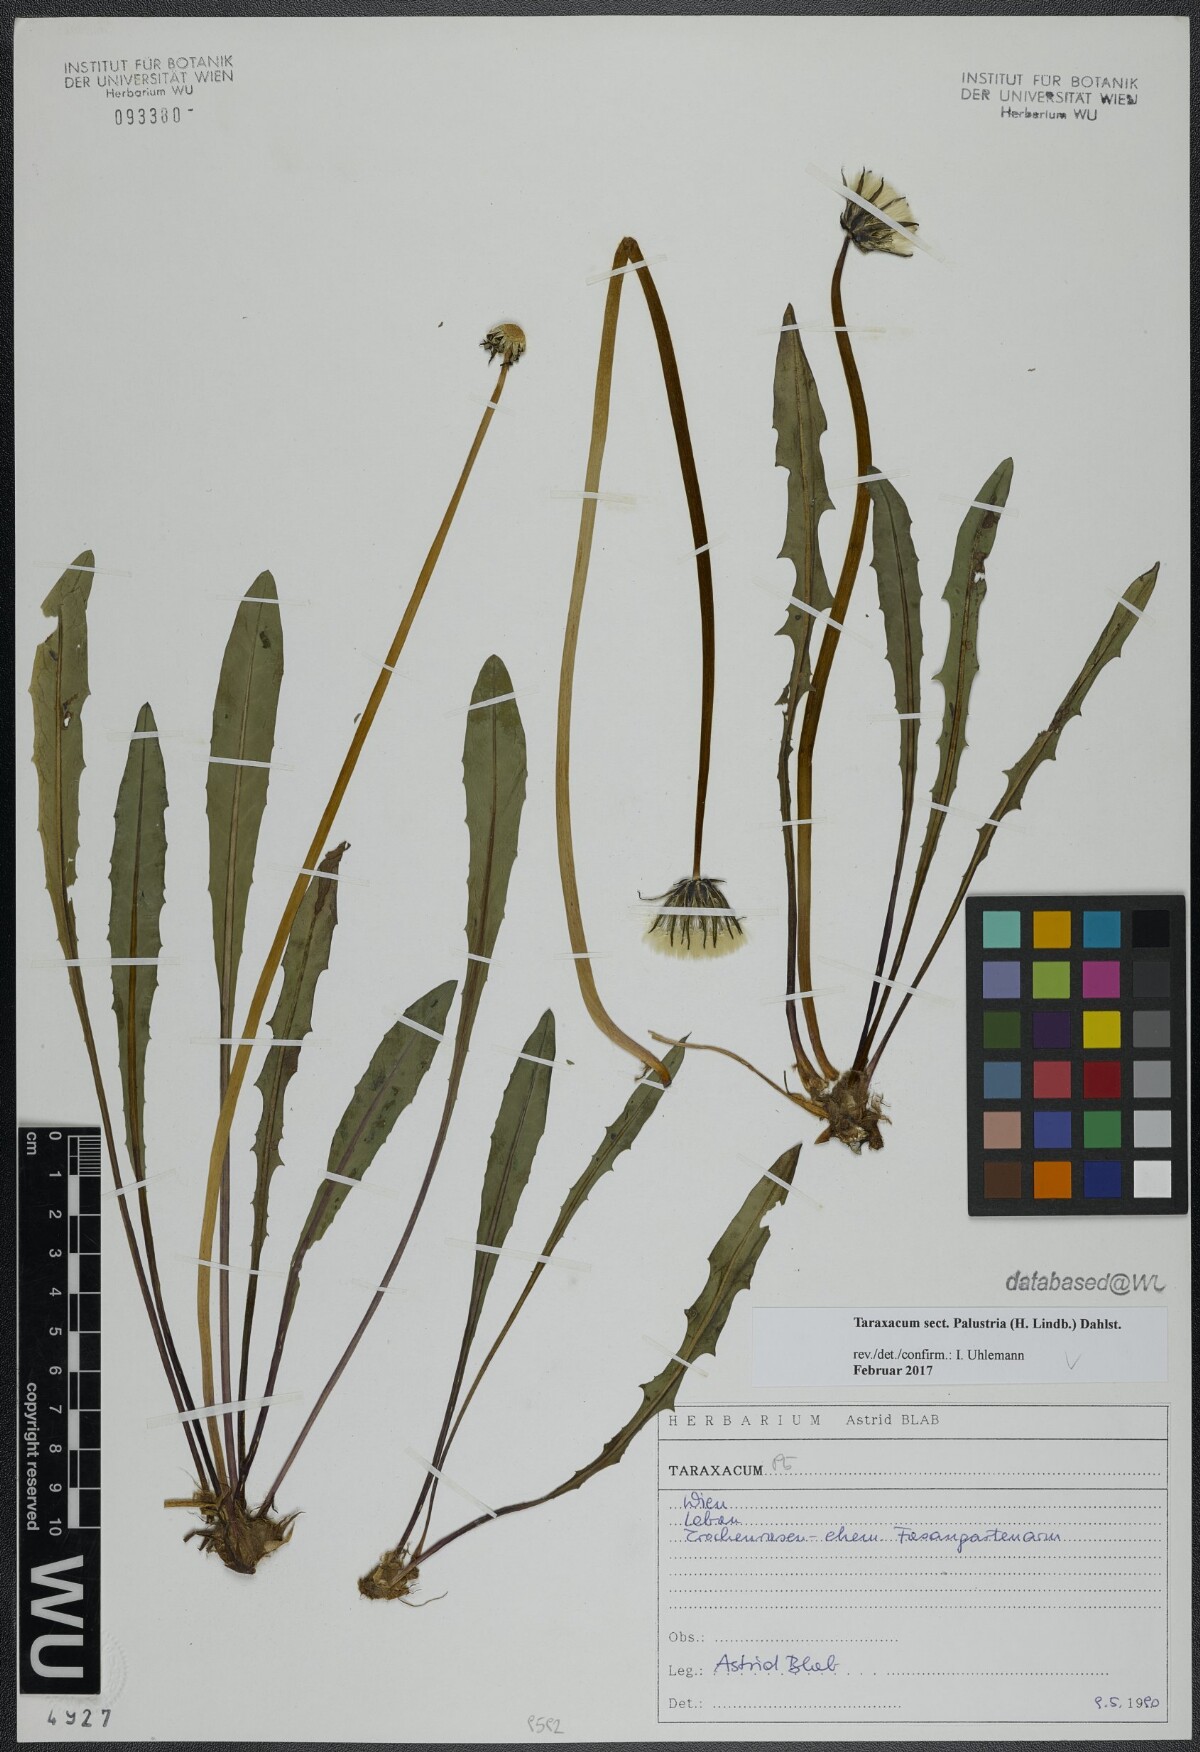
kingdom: Plantae
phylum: Tracheophyta
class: Magnoliopsida
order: Asterales
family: Asteraceae
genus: Taraxacum
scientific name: Taraxacum
